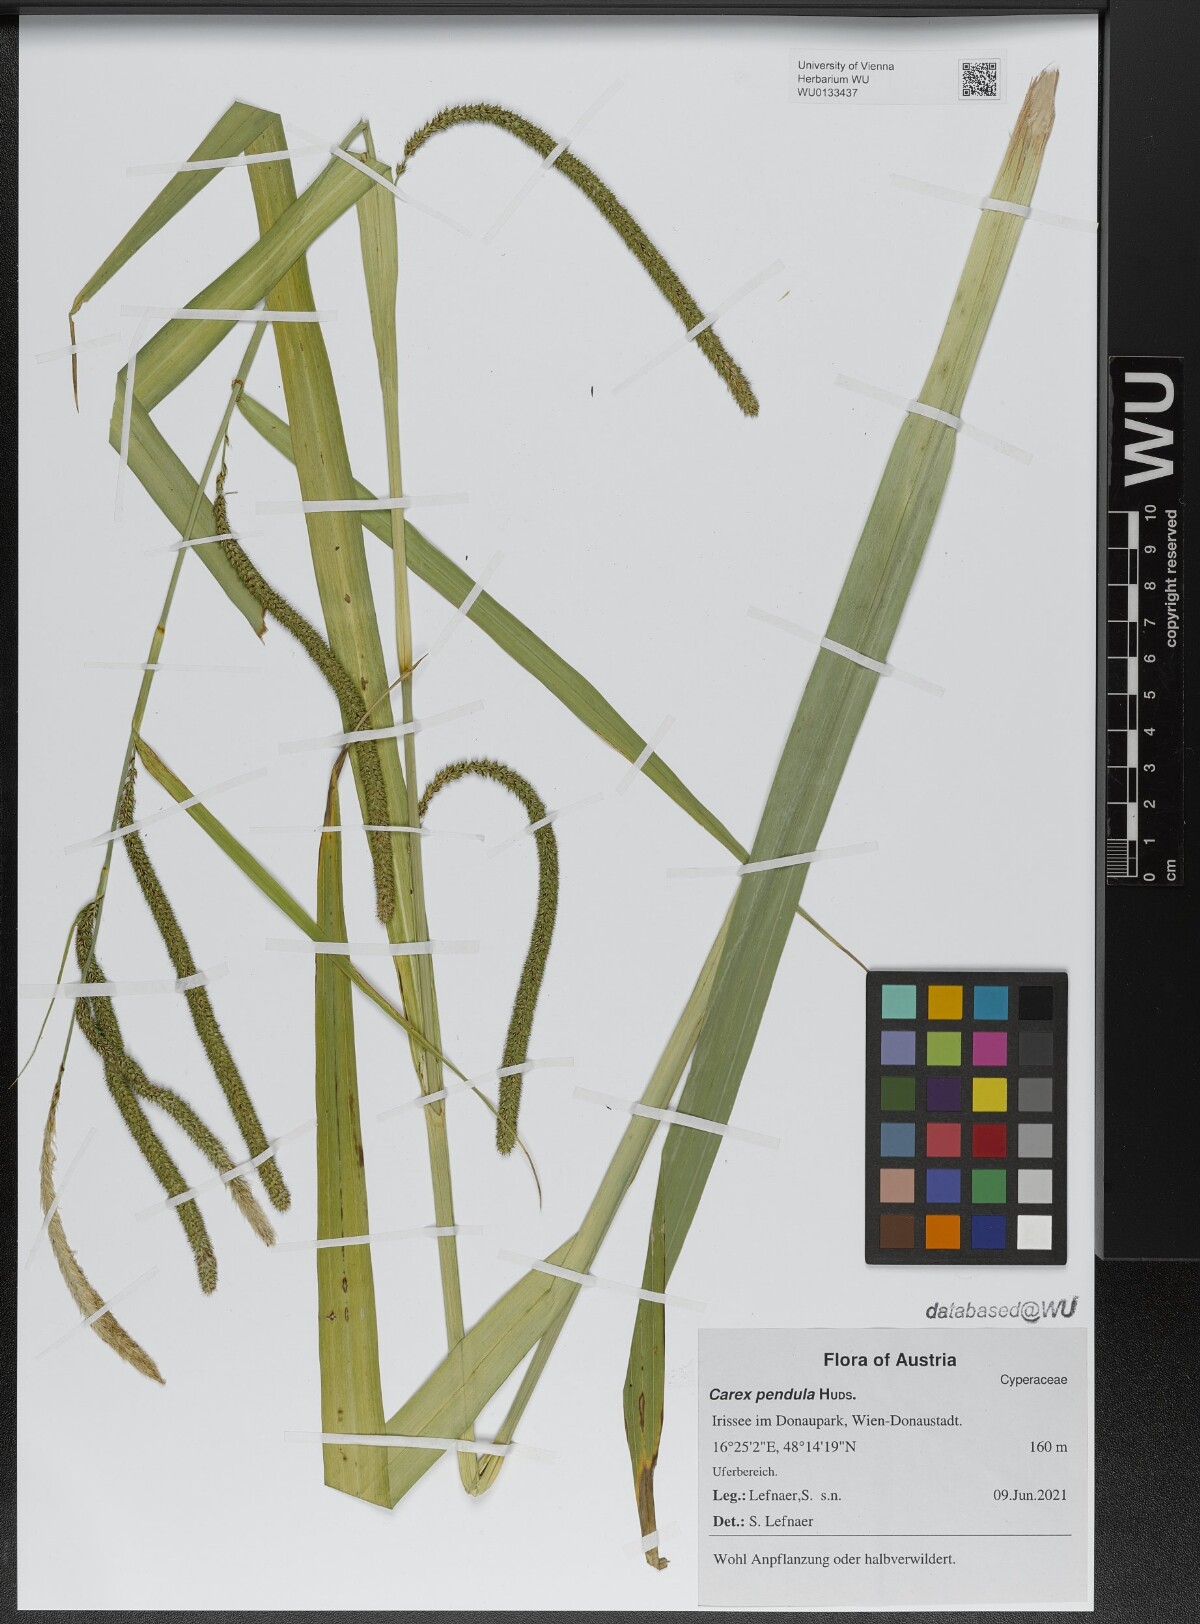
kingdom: Plantae
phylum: Tracheophyta
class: Liliopsida
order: Poales
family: Cyperaceae
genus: Carex
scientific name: Carex pendula
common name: Pendulous sedge
